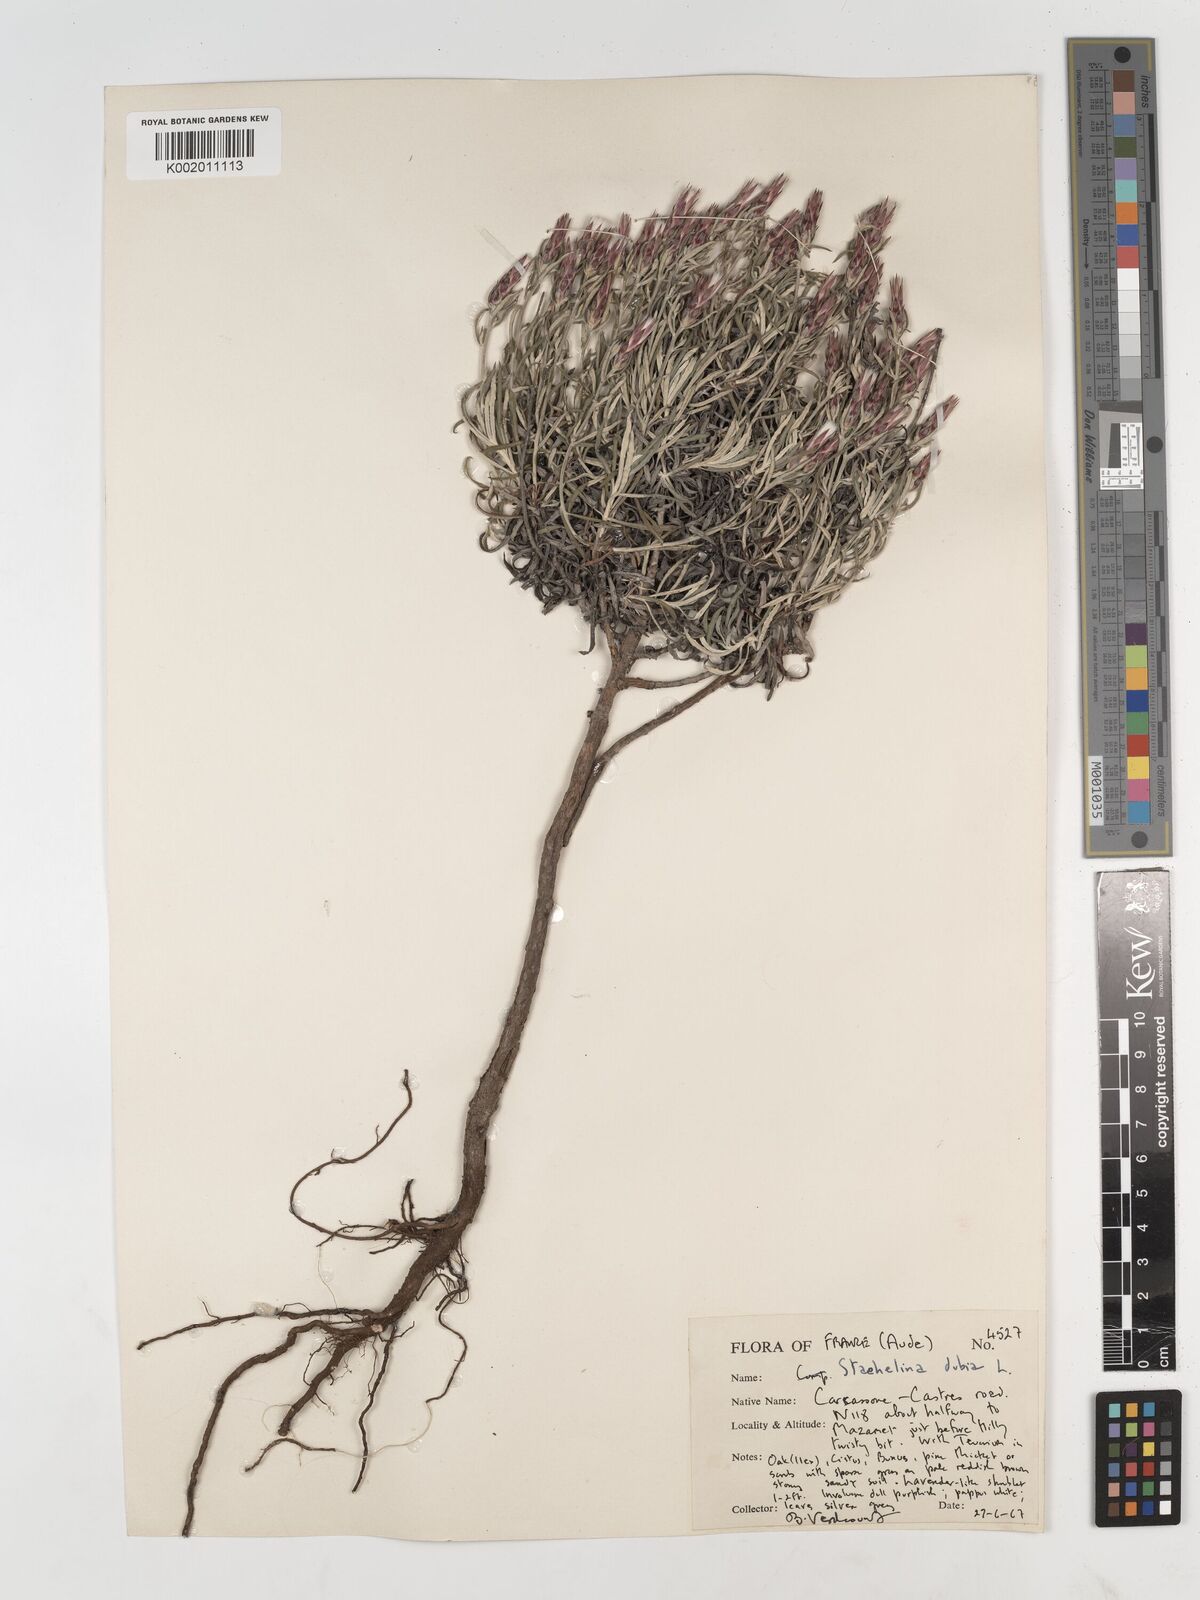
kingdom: Plantae
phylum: Tracheophyta
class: Magnoliopsida
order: Asterales
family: Asteraceae
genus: Staehelina
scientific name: Staehelina dubia
